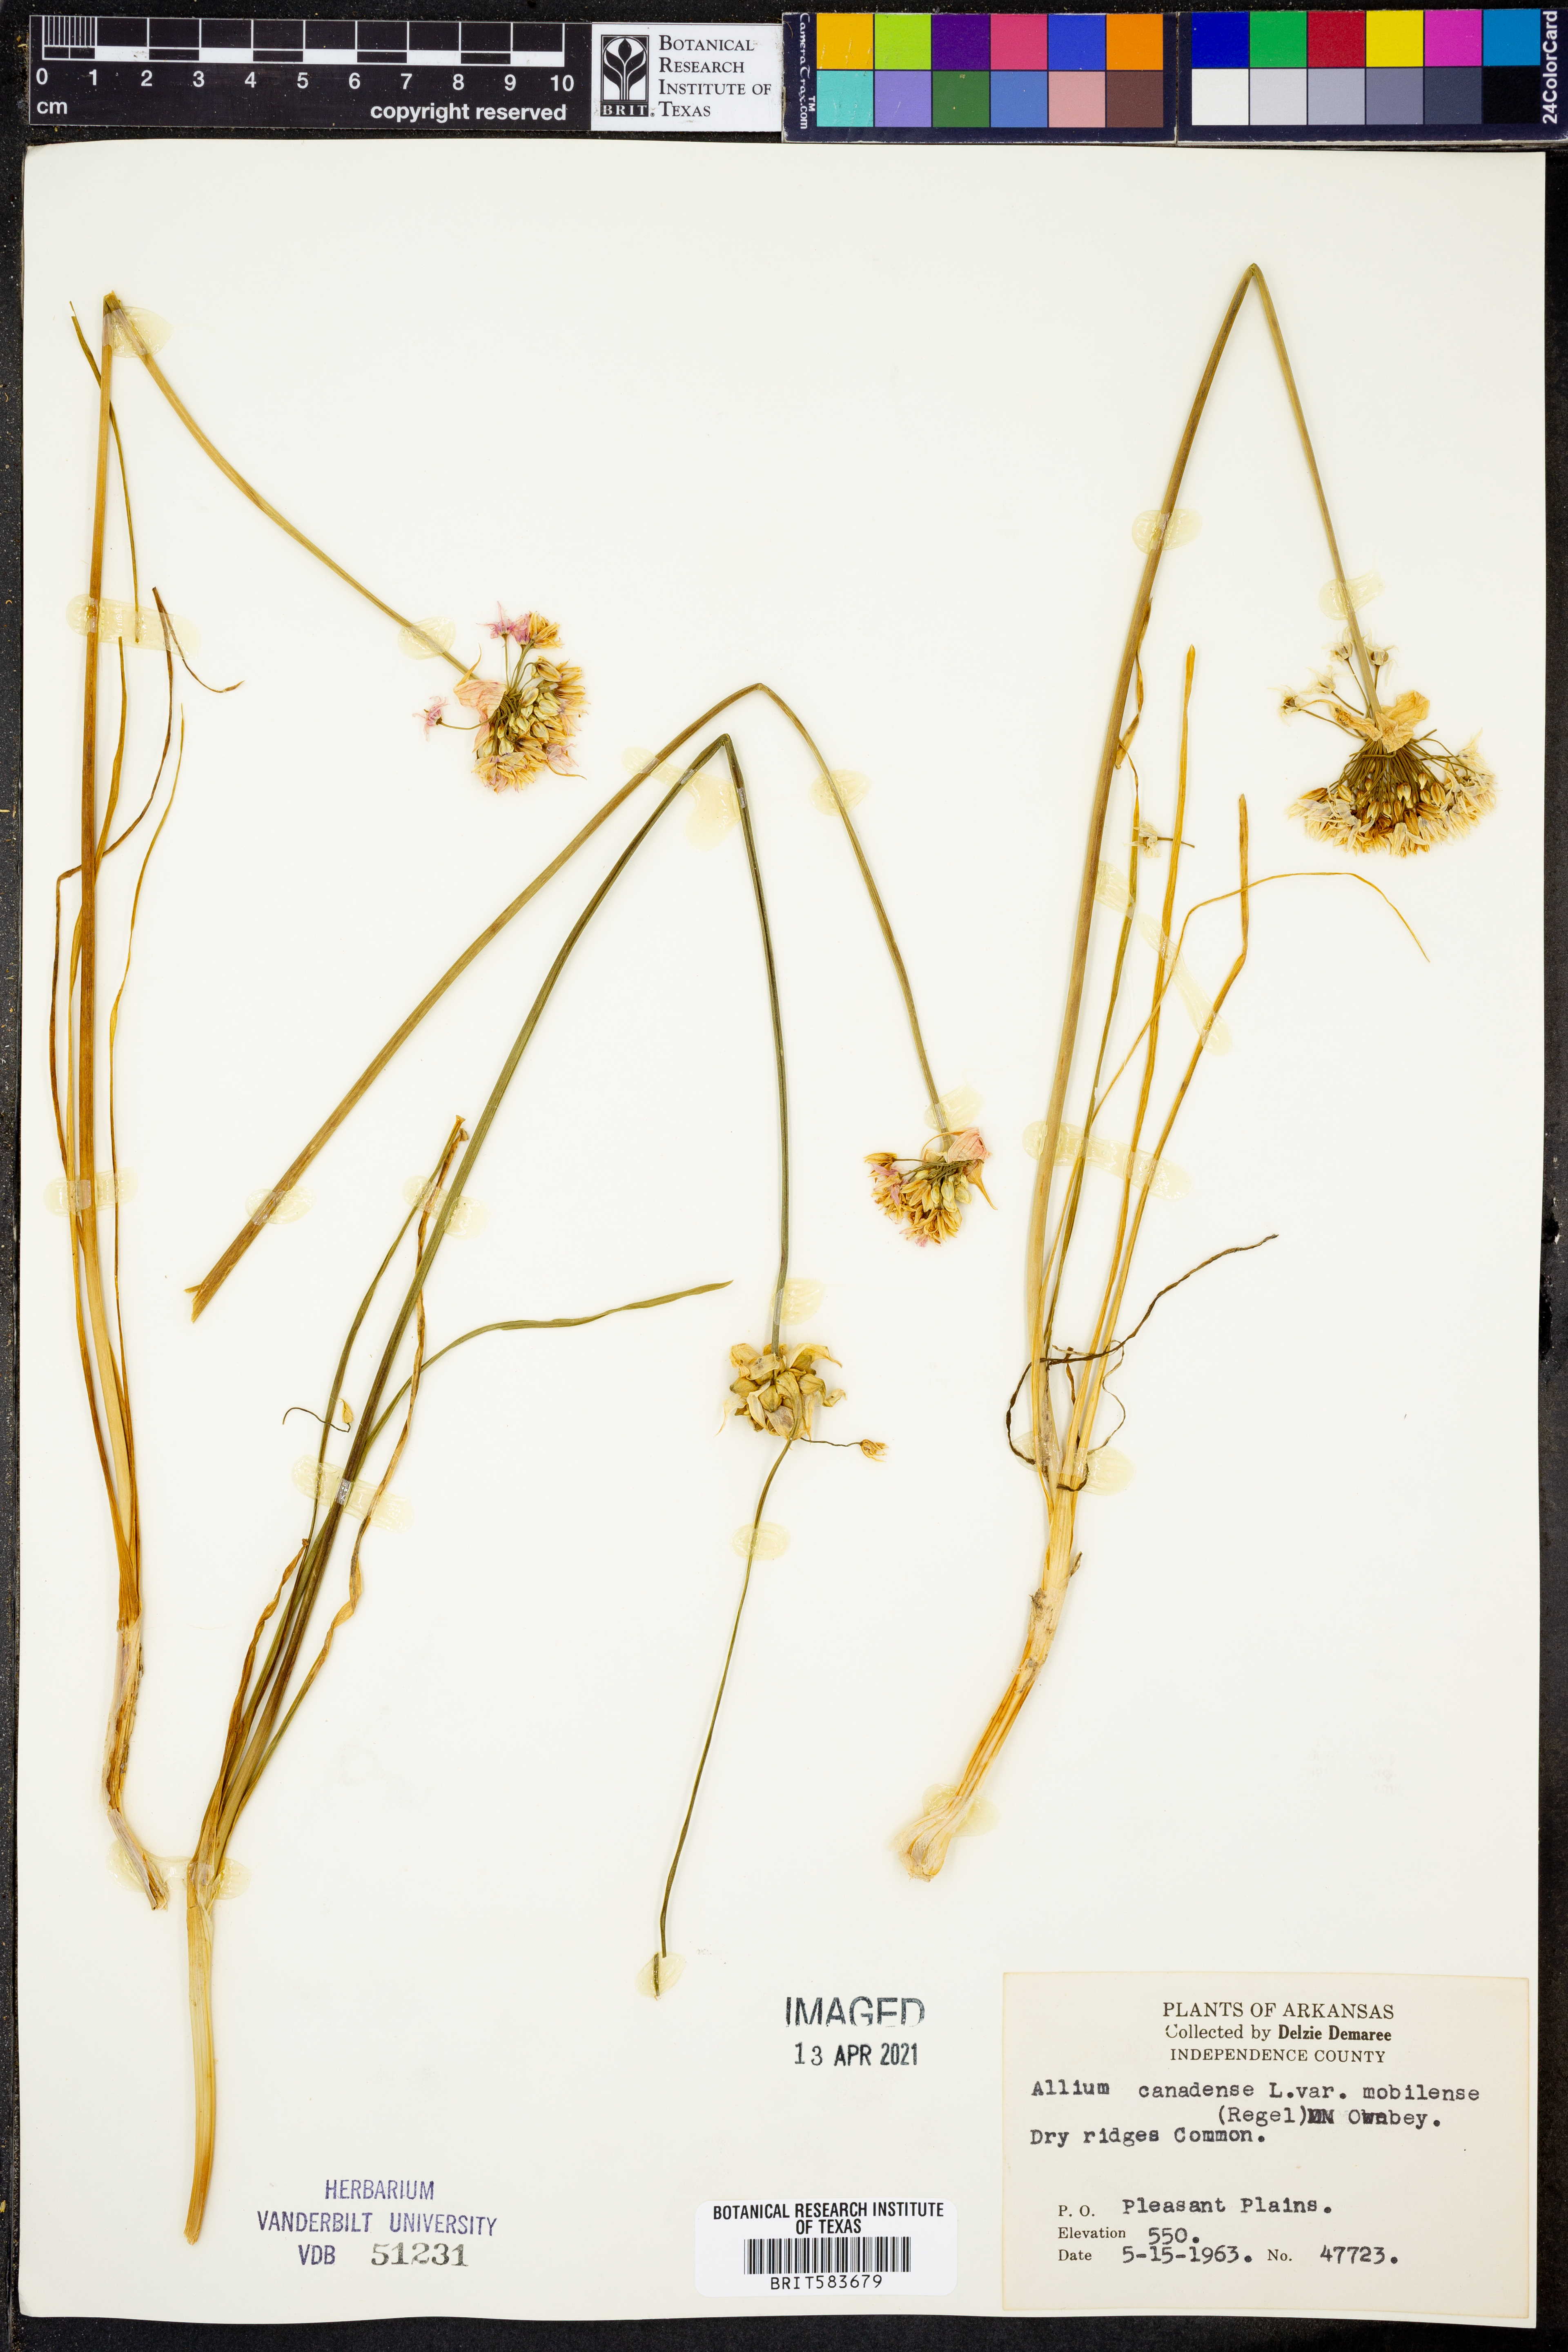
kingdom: Plantae
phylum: Tracheophyta
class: Liliopsida
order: Asparagales
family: Amaryllidaceae
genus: Allium
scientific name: Allium canadense
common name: Meadow garlic
